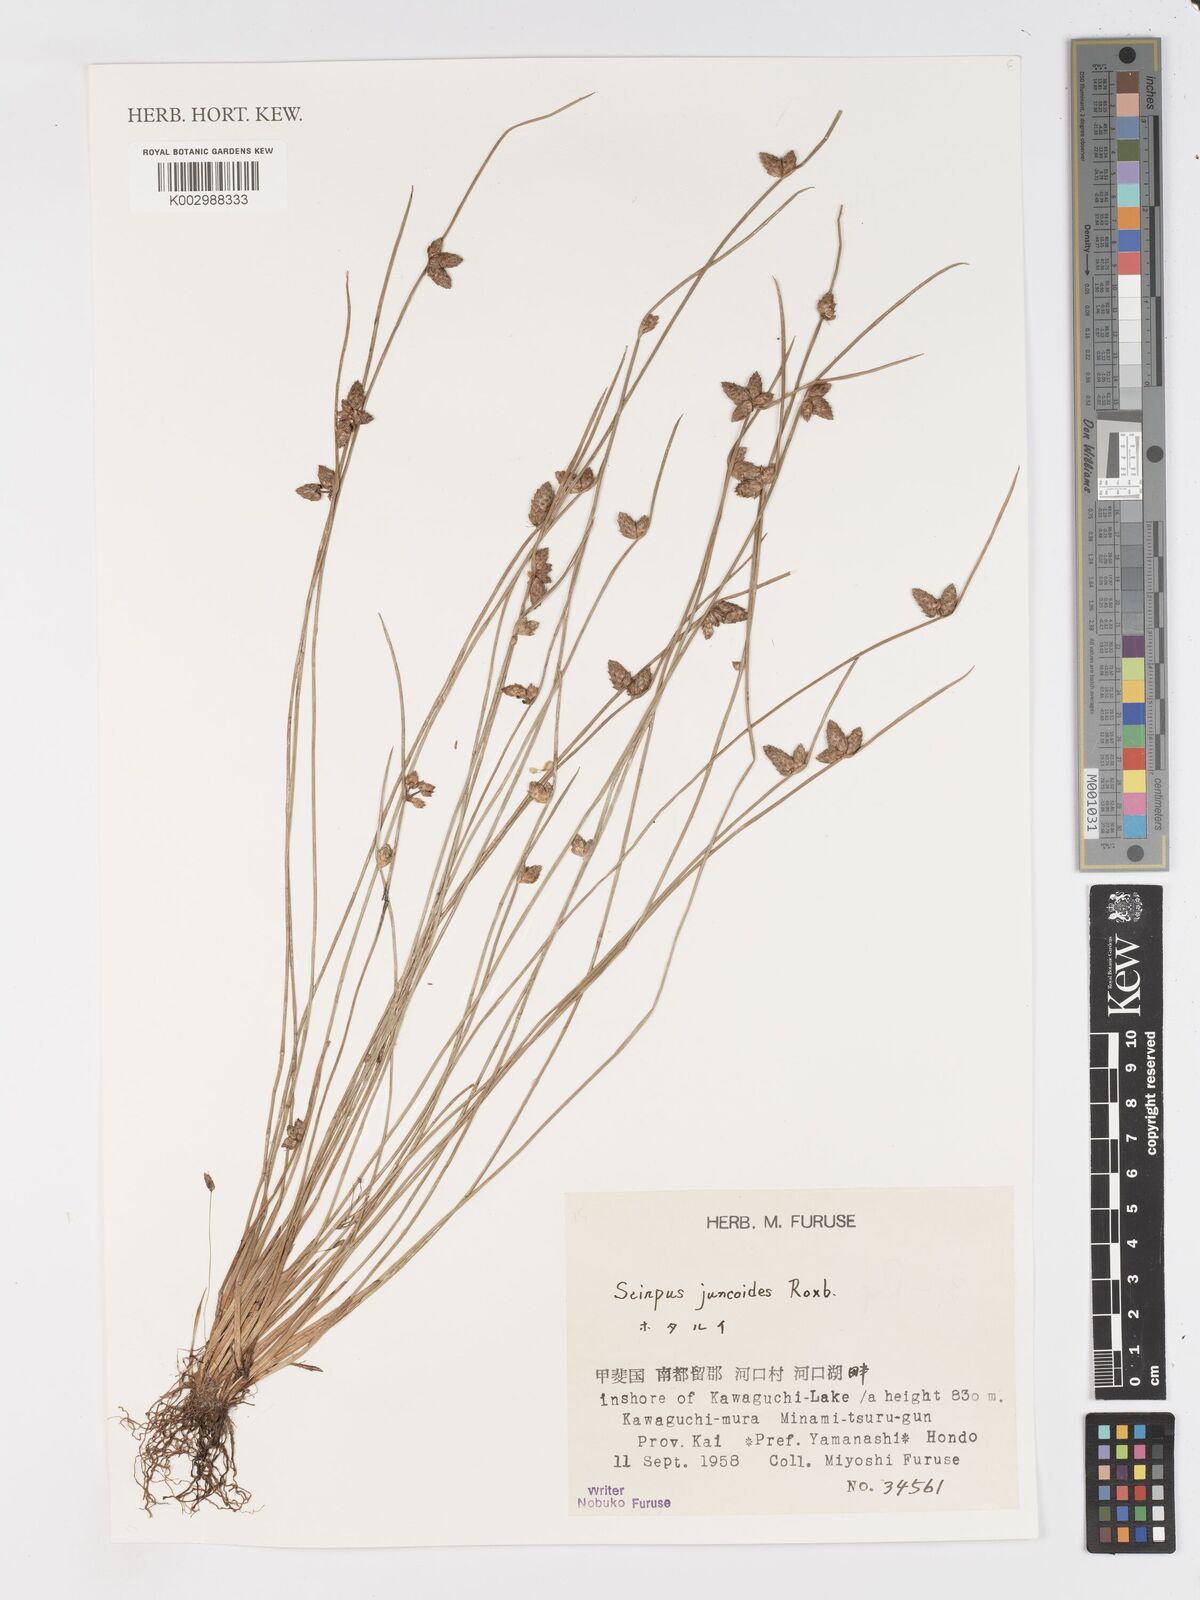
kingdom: Plantae
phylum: Tracheophyta
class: Liliopsida
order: Poales
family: Cyperaceae
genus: Schoenoplectiella
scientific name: Schoenoplectiella juncoides
